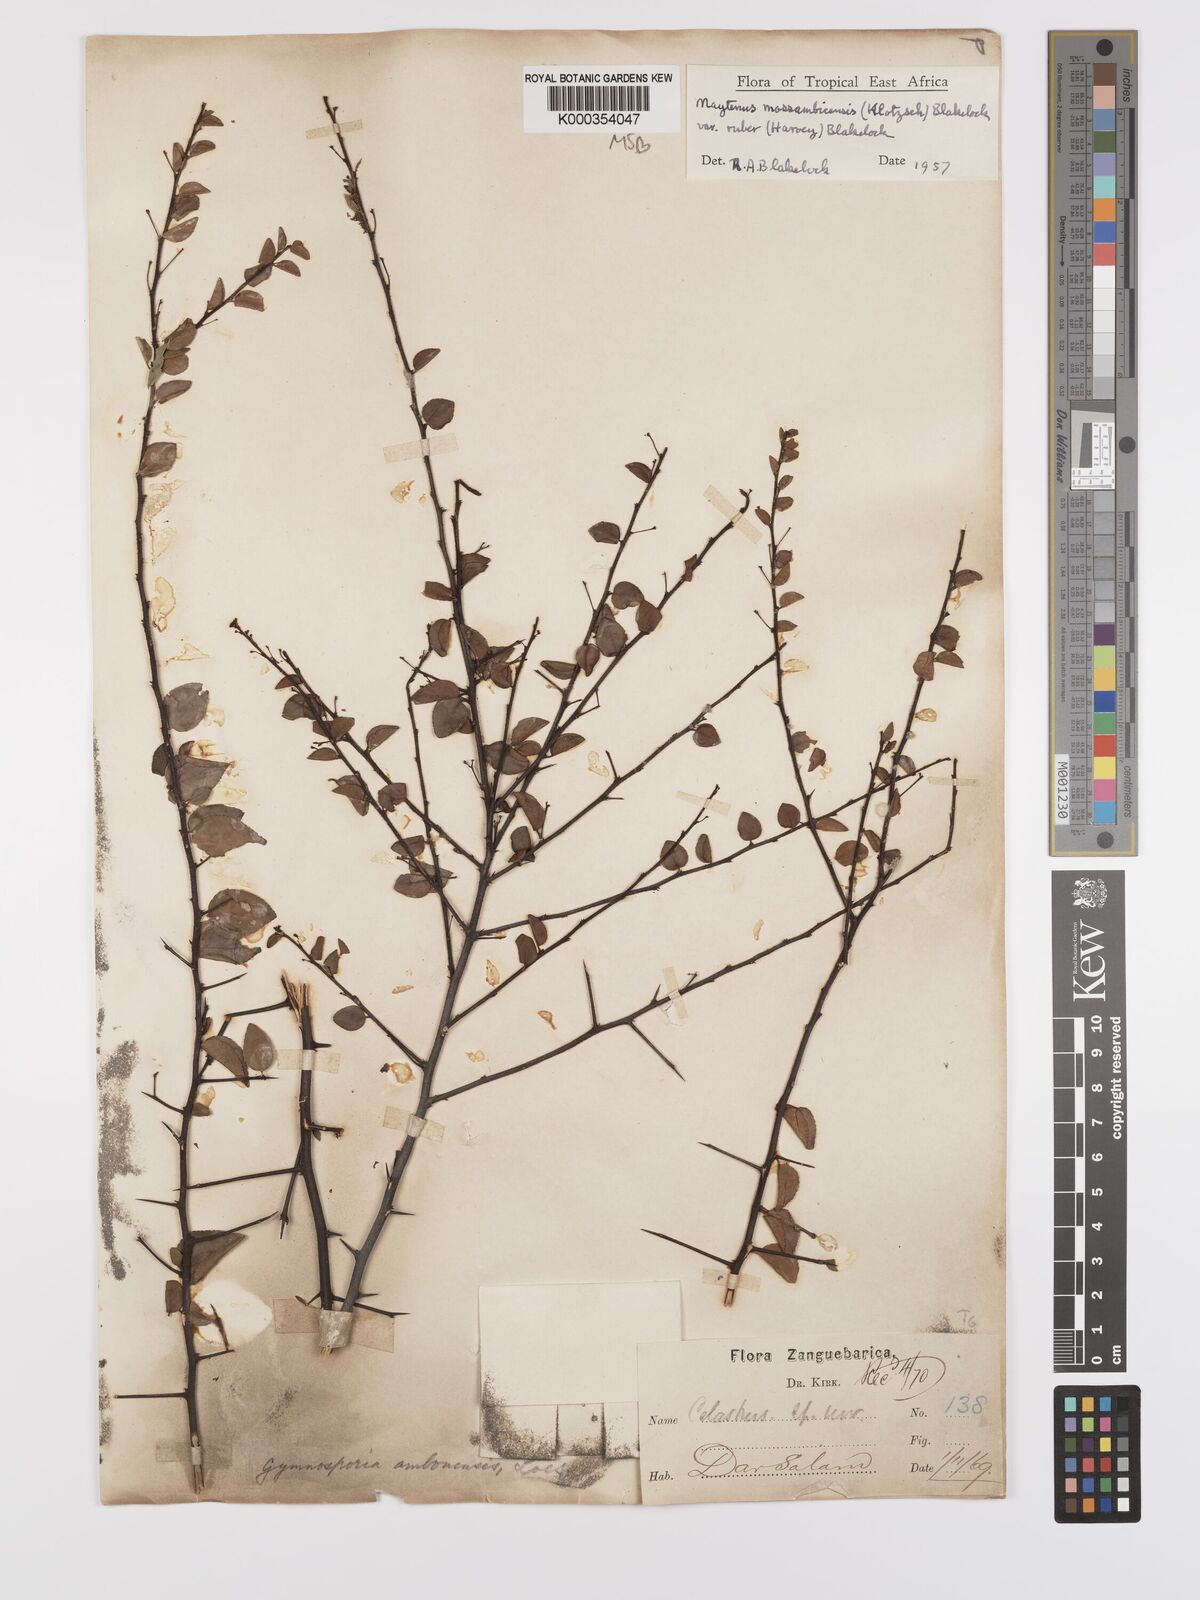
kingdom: Plantae
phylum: Tracheophyta
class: Magnoliopsida
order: Celastrales
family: Celastraceae
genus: Gymnosporia
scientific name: Gymnosporia mossambicensis
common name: Black forest spike-thorn
